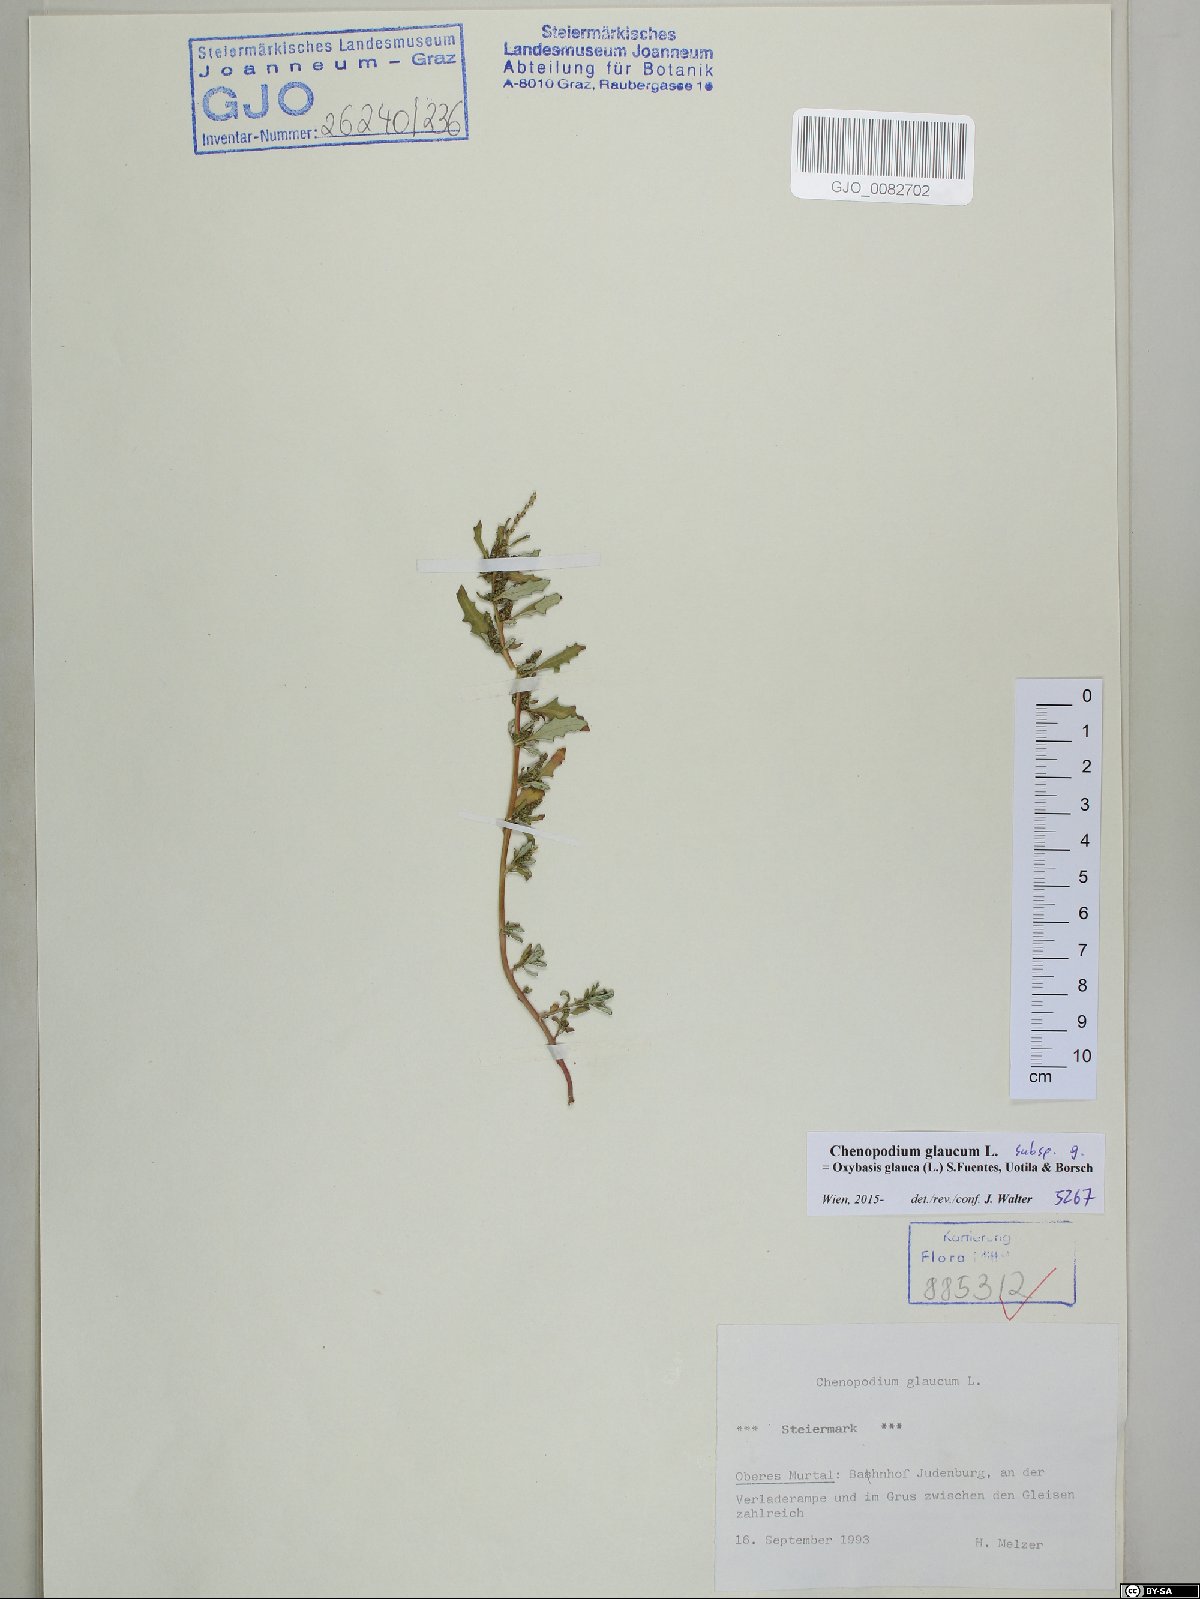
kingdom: Plantae
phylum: Tracheophyta
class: Magnoliopsida
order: Caryophyllales
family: Amaranthaceae
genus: Oxybasis
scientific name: Oxybasis glauca
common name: Glaucous goosefoot
